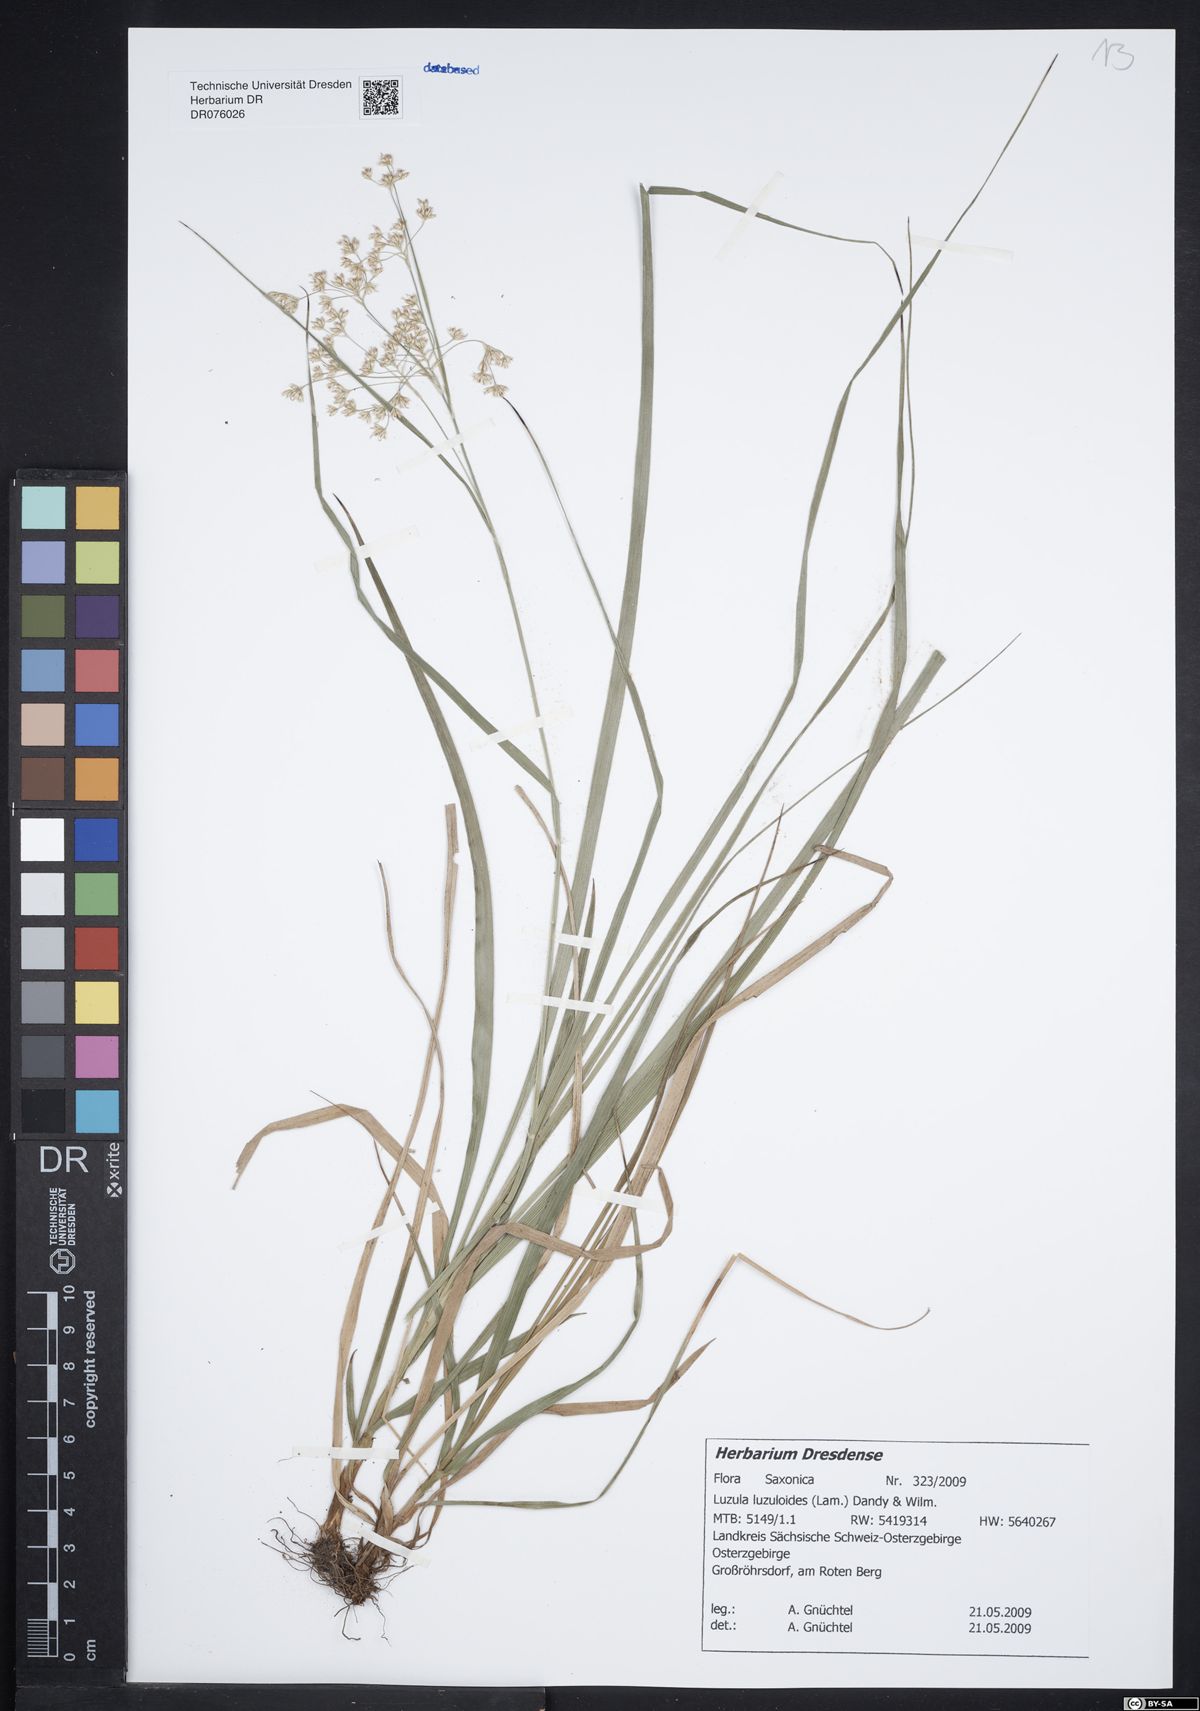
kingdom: Plantae
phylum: Tracheophyta
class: Liliopsida
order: Poales
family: Juncaceae
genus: Luzula
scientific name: Luzula luzuloides
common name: White wood-rush
